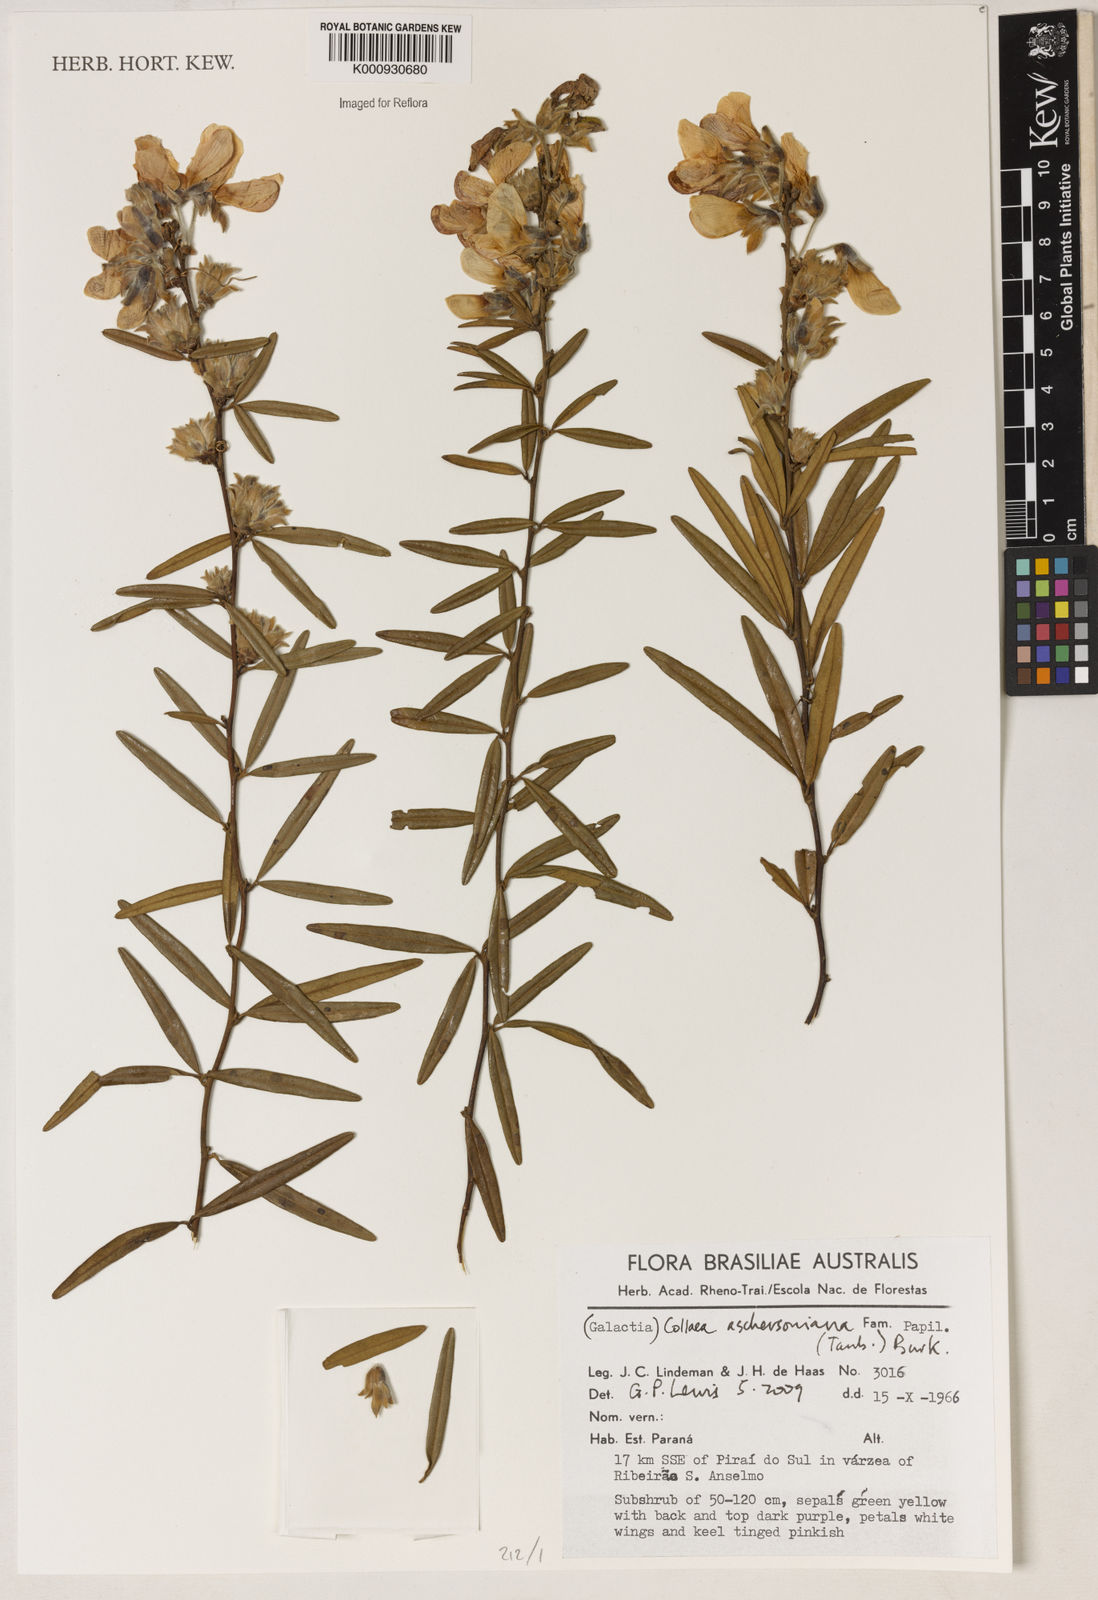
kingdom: Plantae
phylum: Tracheophyta
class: Liliopsida
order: Asparagales
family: Orchidaceae
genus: Pelexia
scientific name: Pelexia
